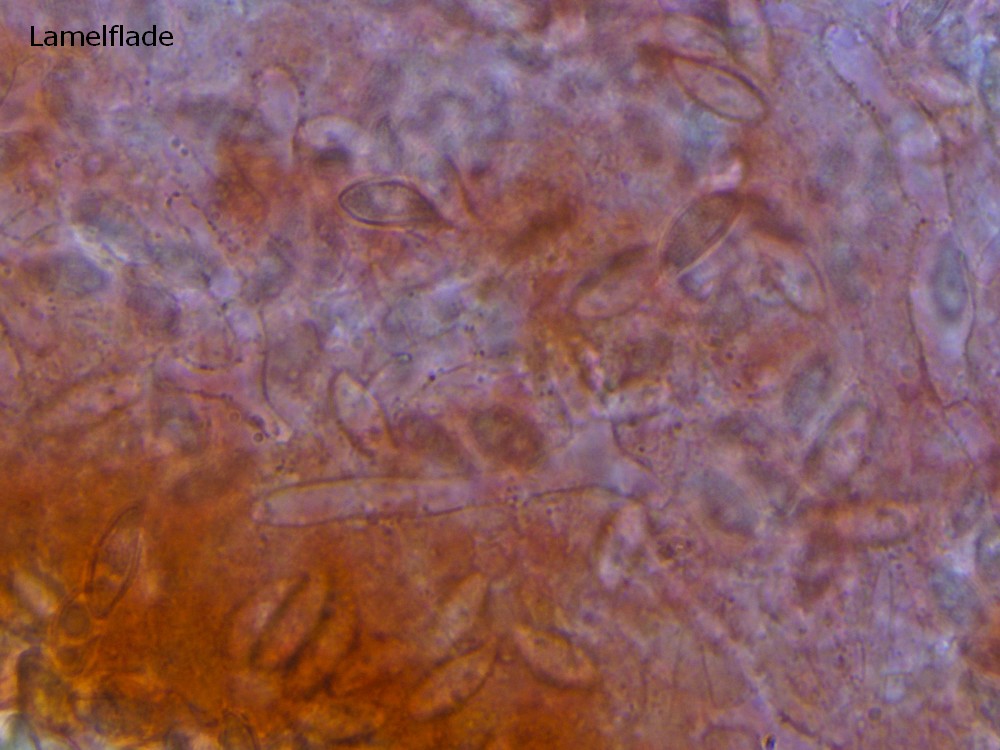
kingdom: Fungi
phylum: Basidiomycota
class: Agaricomycetes
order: Agaricales
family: Agaricaceae
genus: Lepiota
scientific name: Lepiota oreadiformis
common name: blegbrun parasolhat
